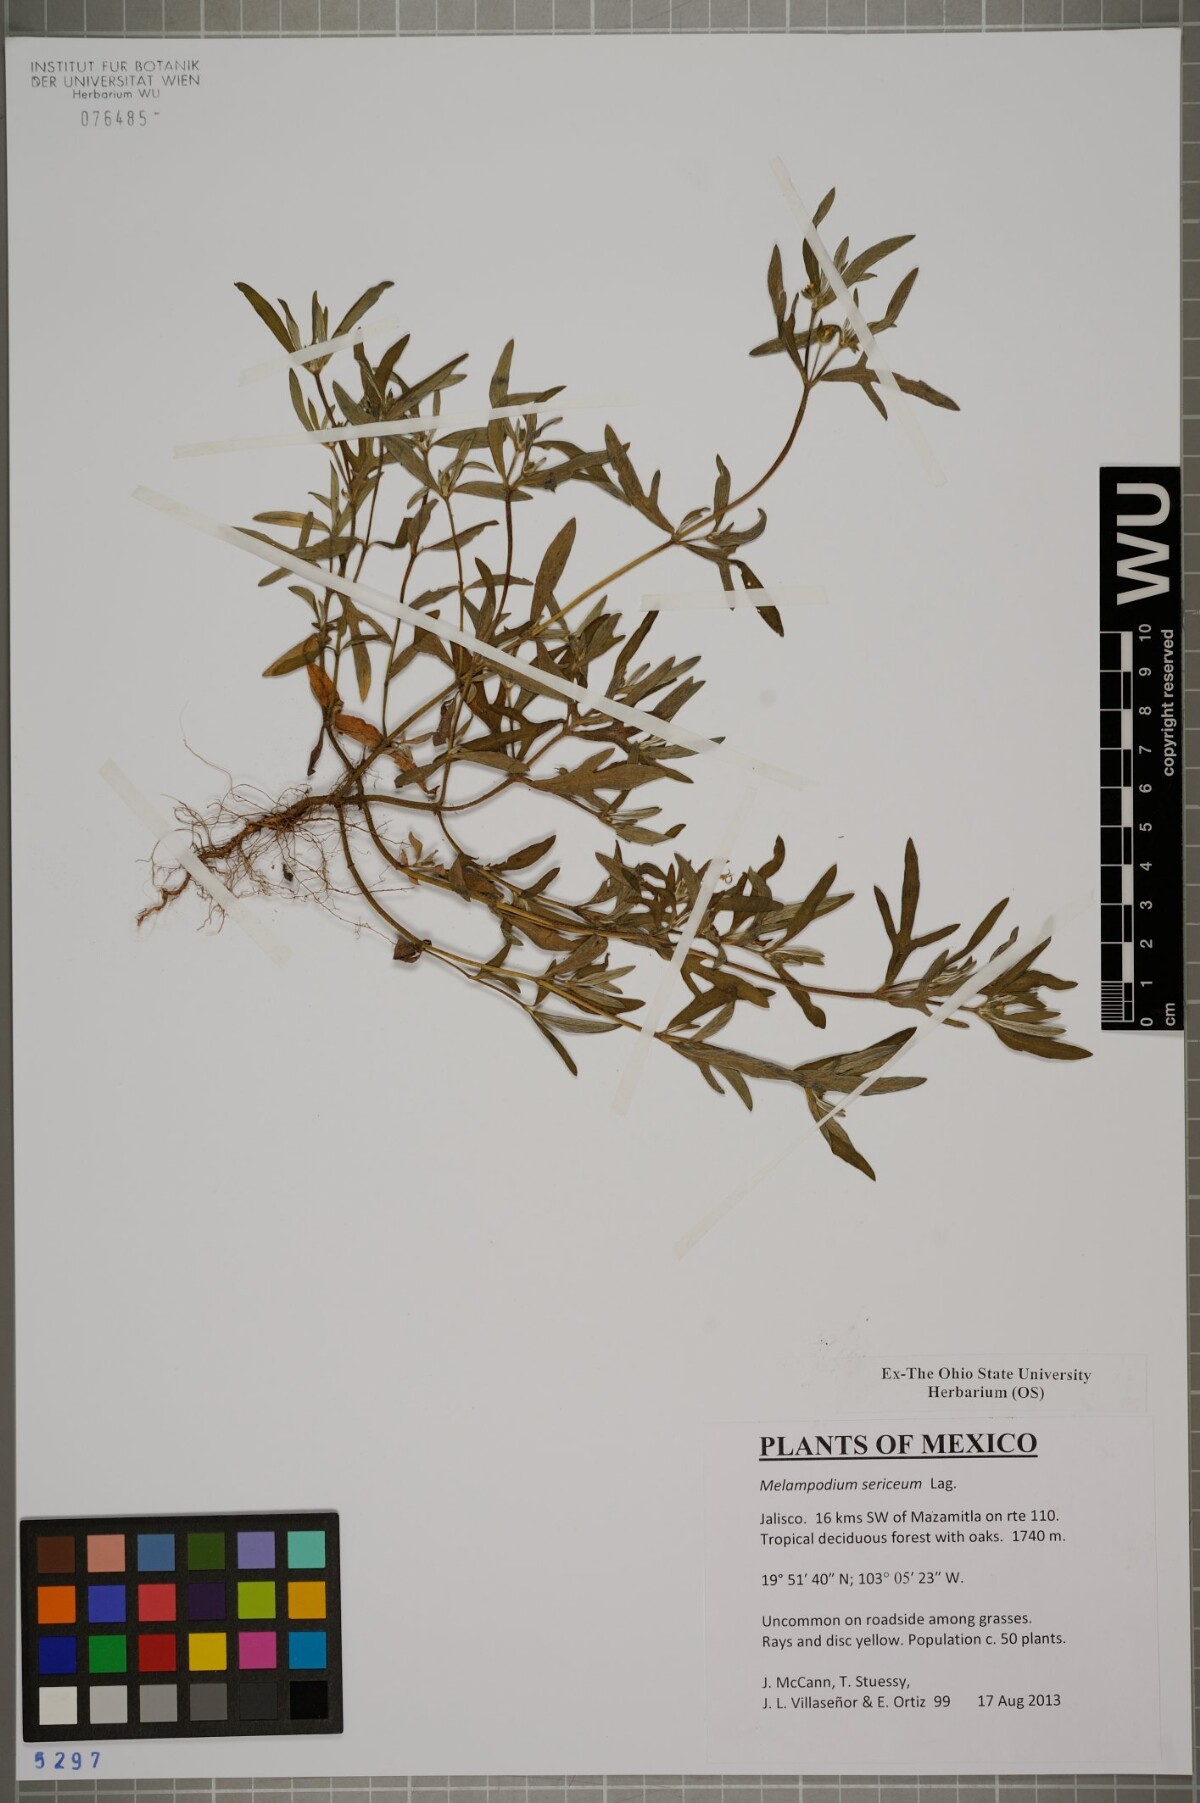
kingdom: Plantae
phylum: Tracheophyta
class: Magnoliopsida
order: Asterales
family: Asteraceae
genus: Melampodium
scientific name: Melampodium sericeum
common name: Rough blackfoot
